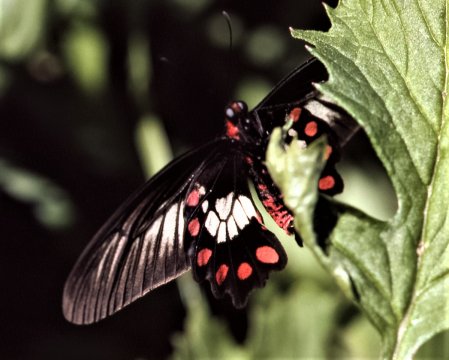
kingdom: Animalia
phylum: Arthropoda
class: Insecta
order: Lepidoptera
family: Papilionidae
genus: Pachliopta
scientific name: Pachliopta polydorus
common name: Red-bodied Swallowtail
